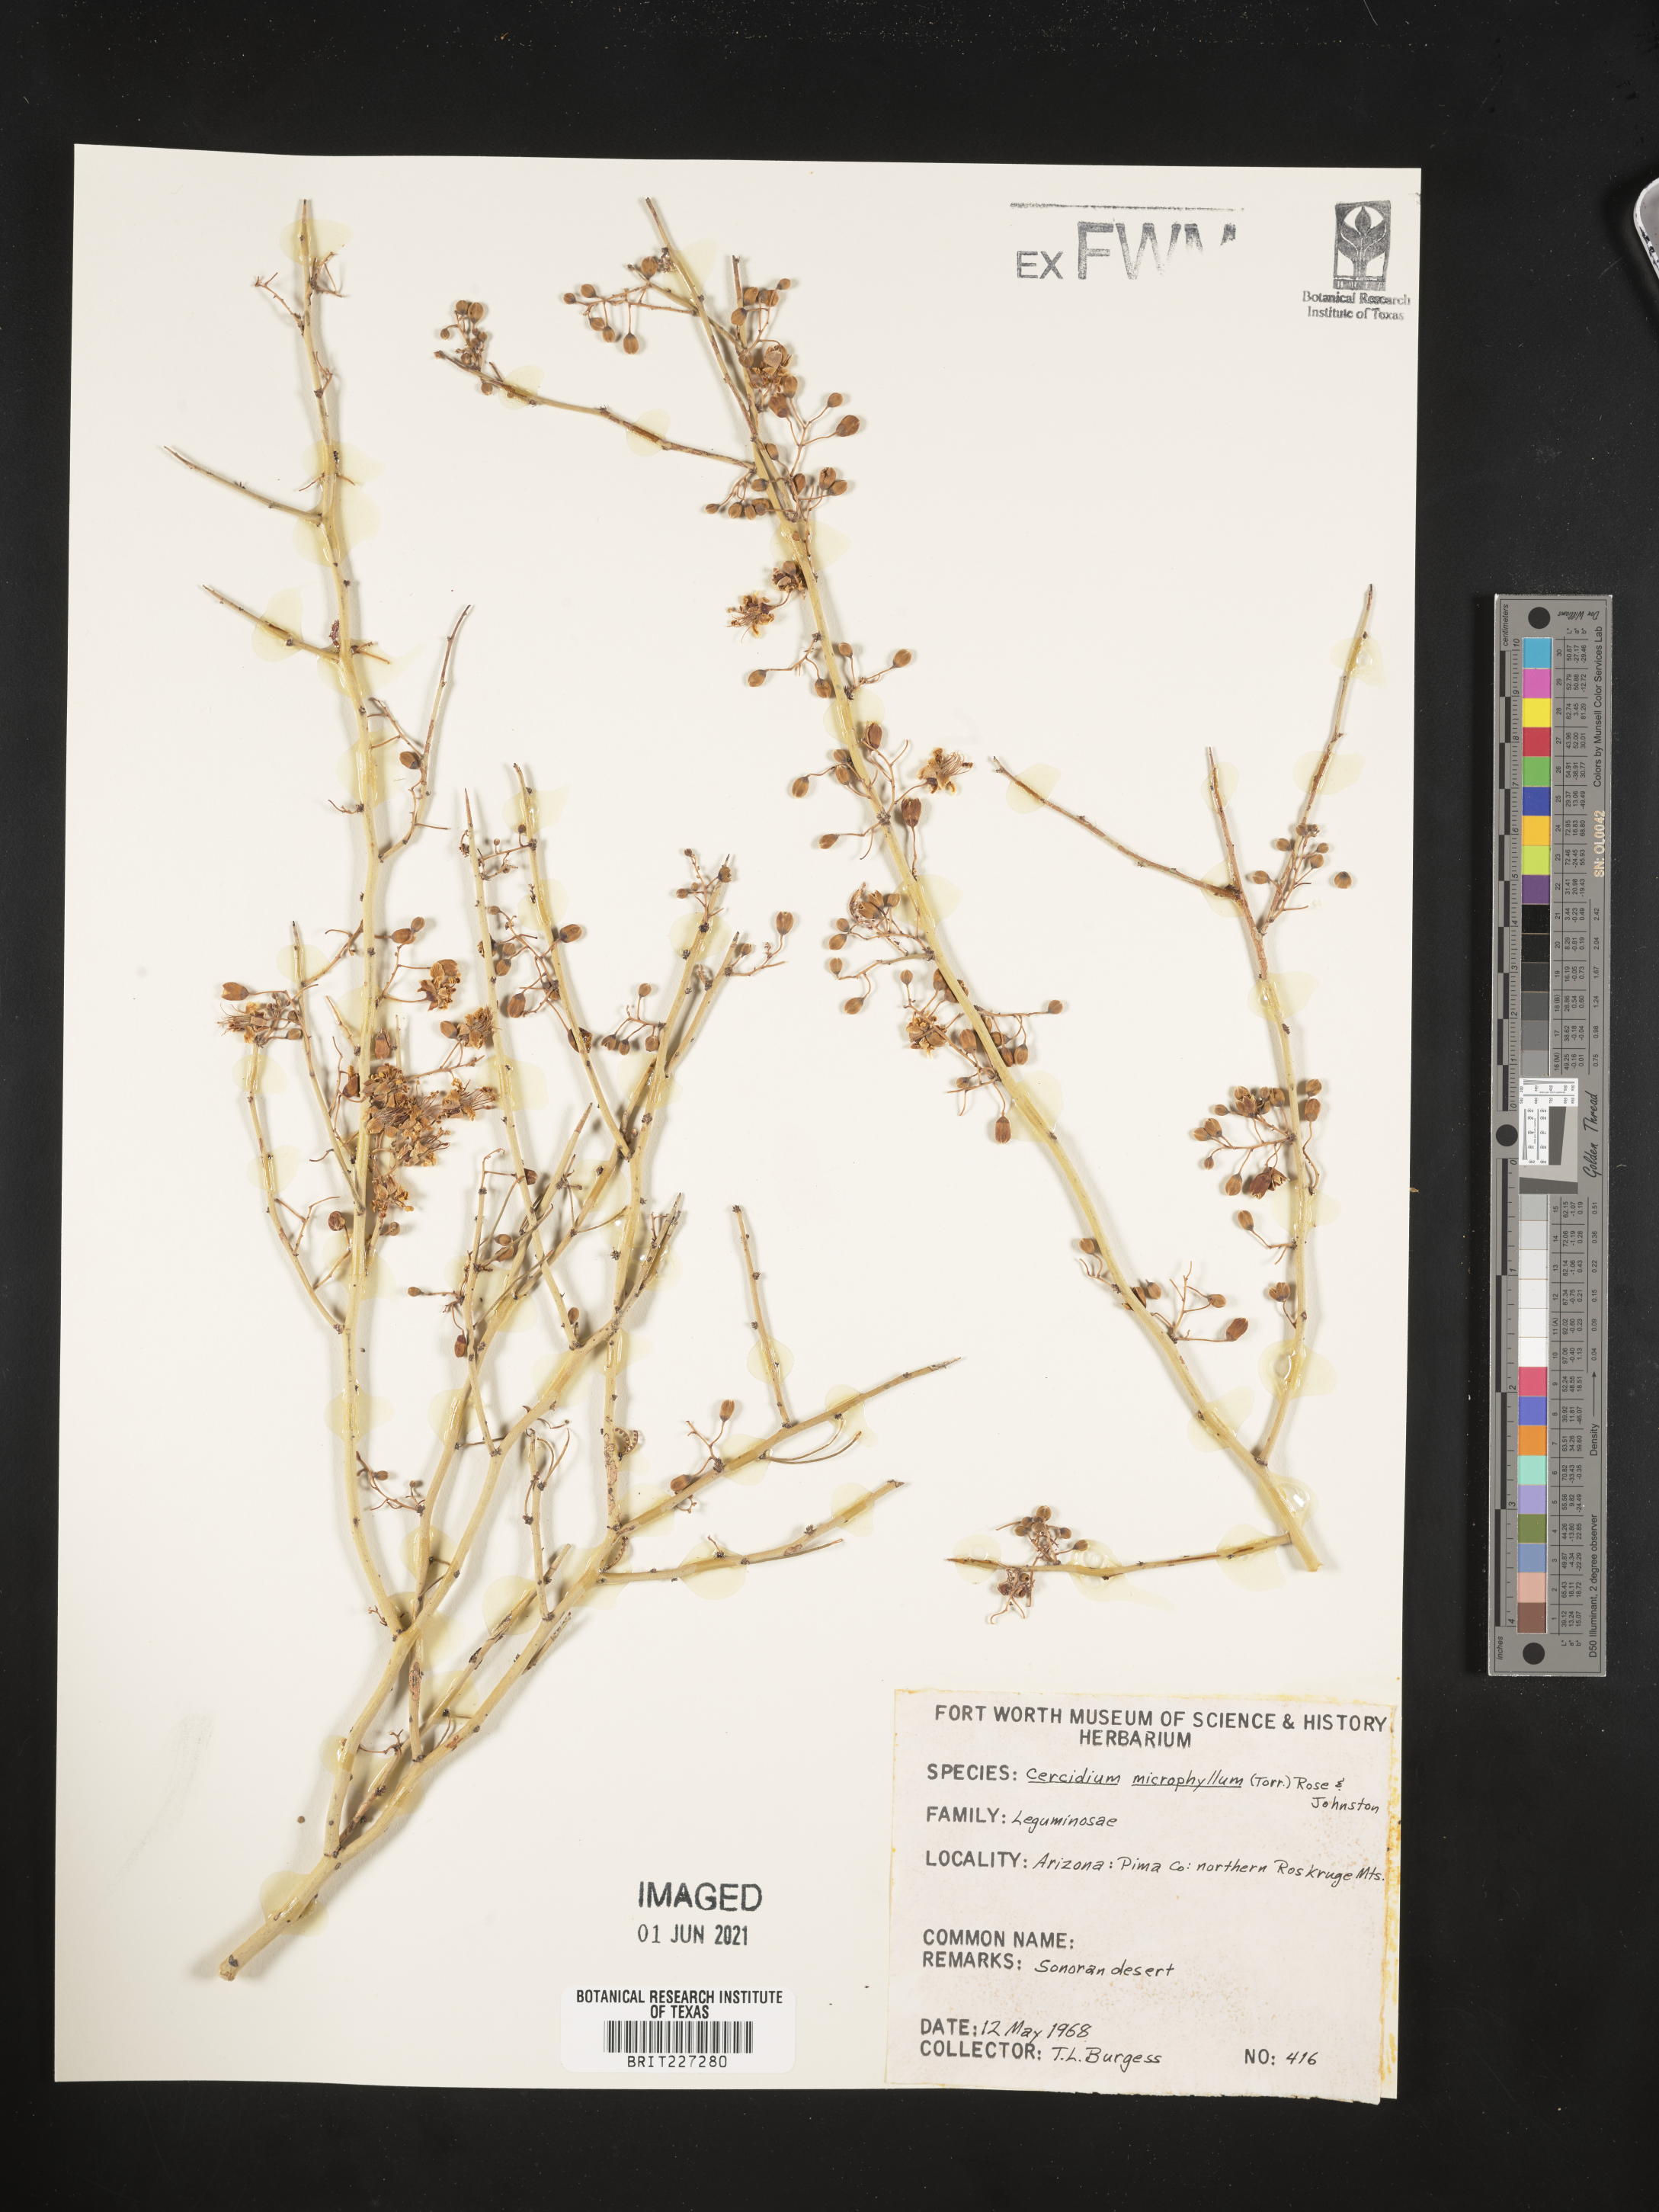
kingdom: Plantae
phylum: Tracheophyta
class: Magnoliopsida
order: Fabales
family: Fabaceae
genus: Parkinsonia
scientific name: Parkinsonia microphylla
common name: Yellow paloverde
